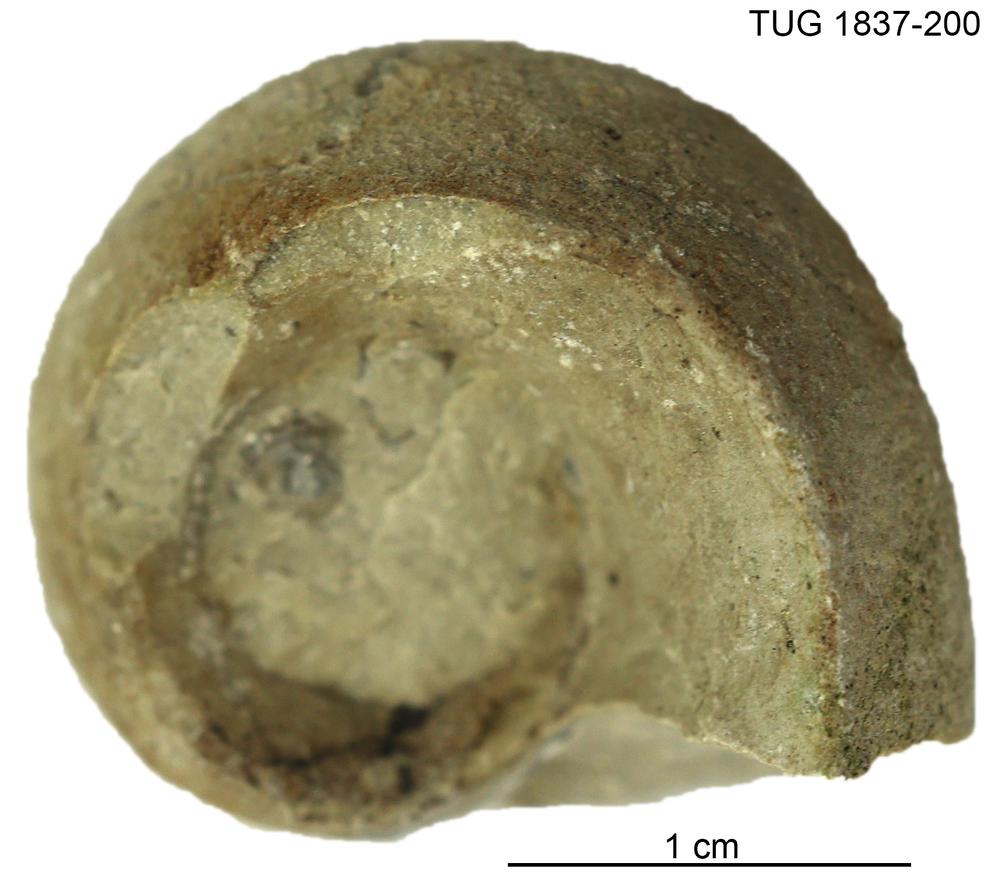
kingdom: Animalia
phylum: Mollusca
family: Bucanellidae
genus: Bucanella
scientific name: Bucanella
